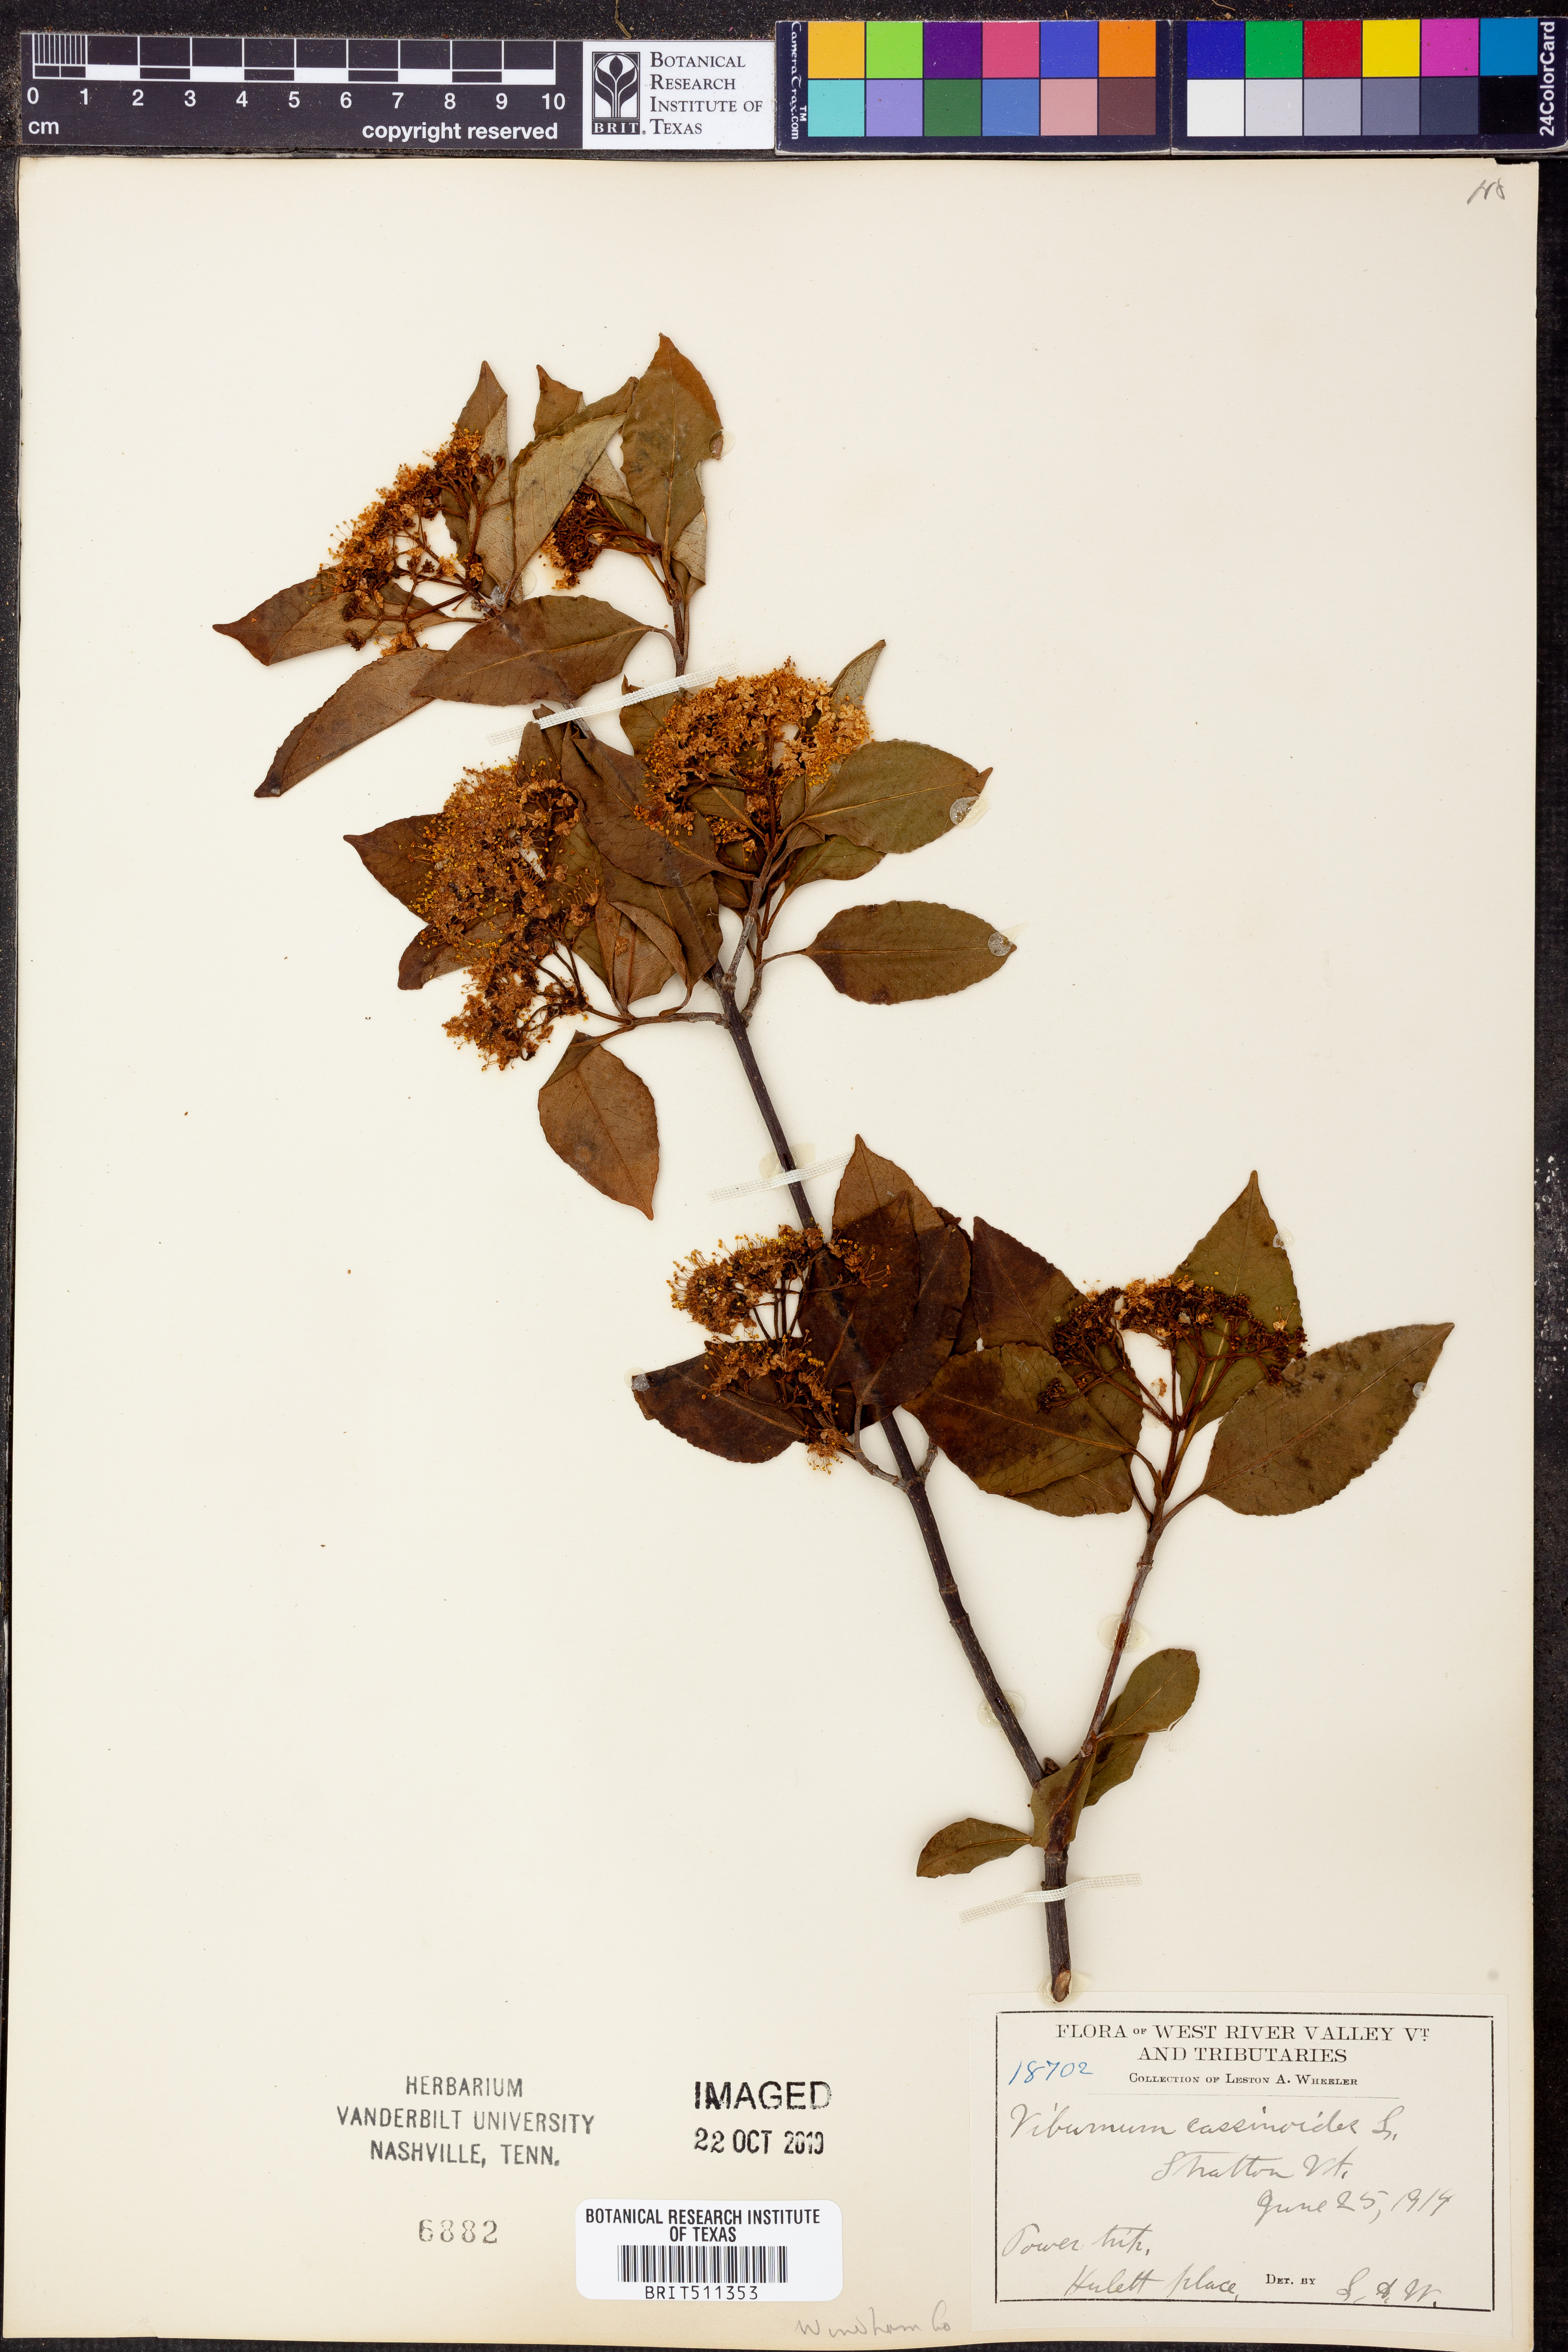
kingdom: Plantae
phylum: Tracheophyta
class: Magnoliopsida
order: Dipsacales
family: Viburnaceae
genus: Viburnum
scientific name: Viburnum cassinoides
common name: Swamp haw
